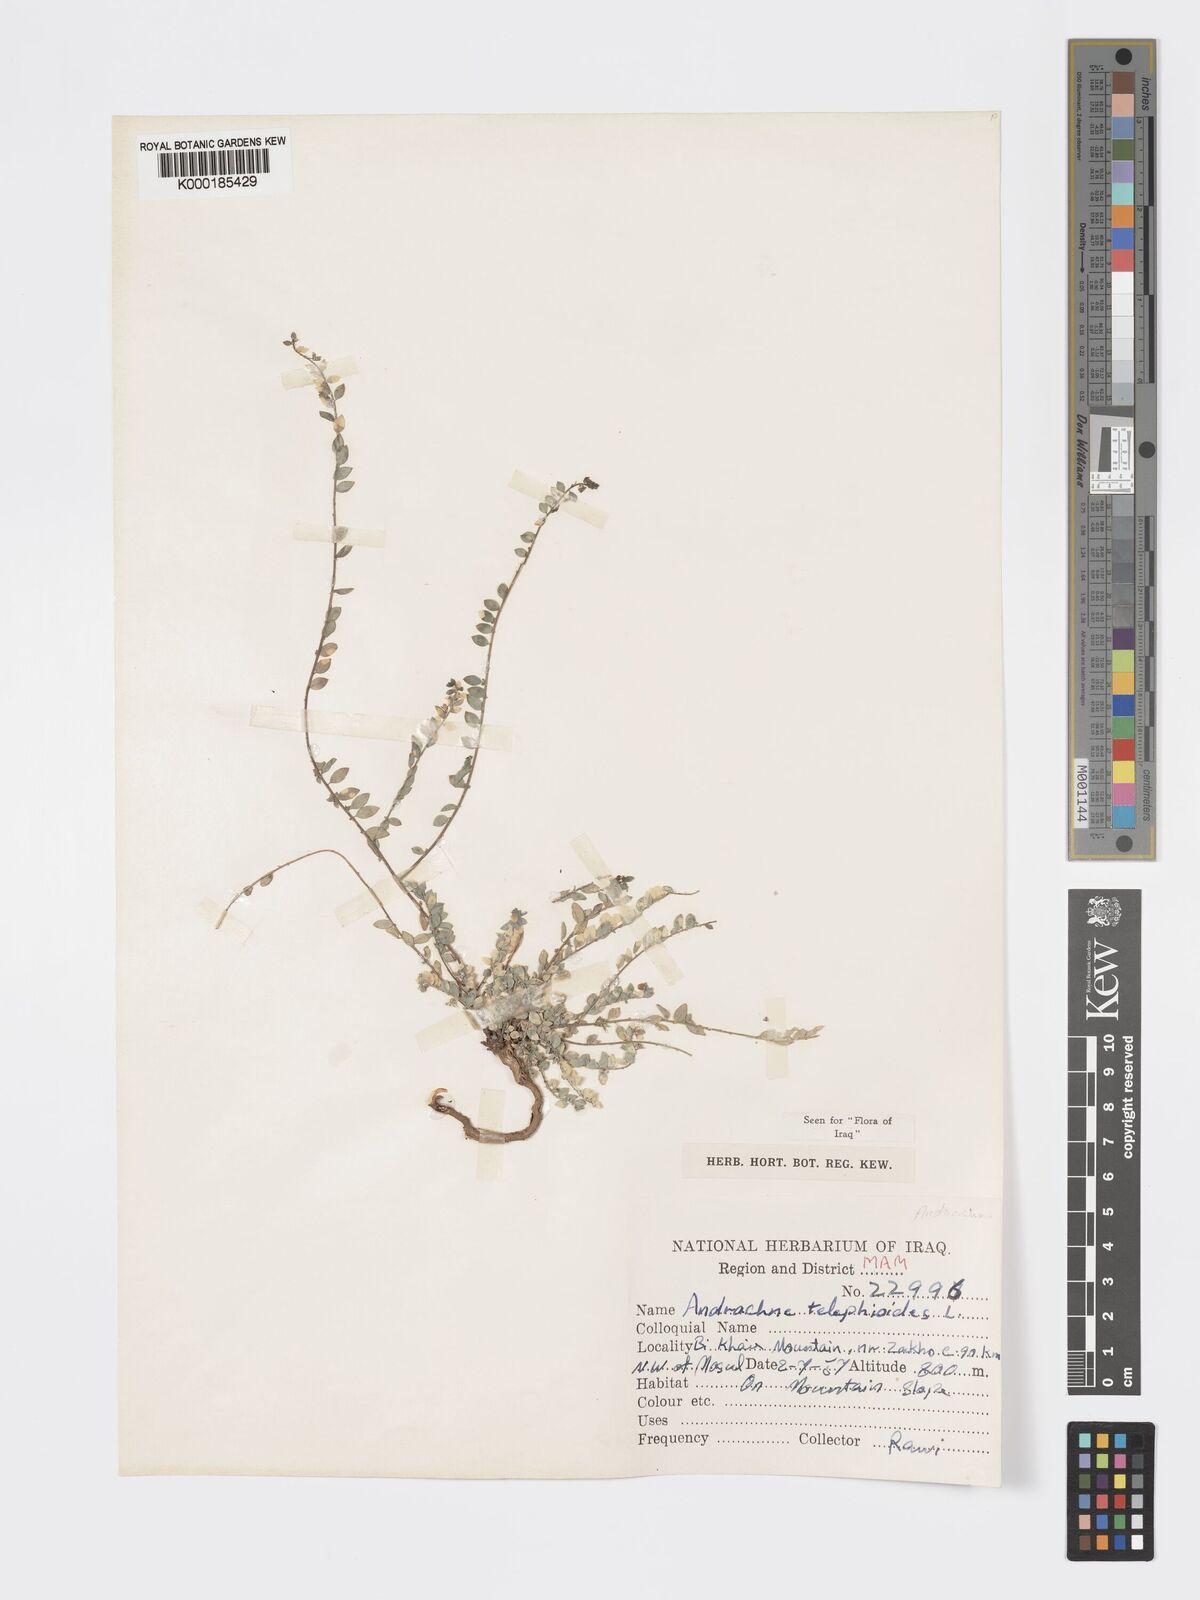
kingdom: Plantae
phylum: Tracheophyta
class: Magnoliopsida
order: Malpighiales
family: Phyllanthaceae
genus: Andrachne
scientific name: Andrachne telephioides
